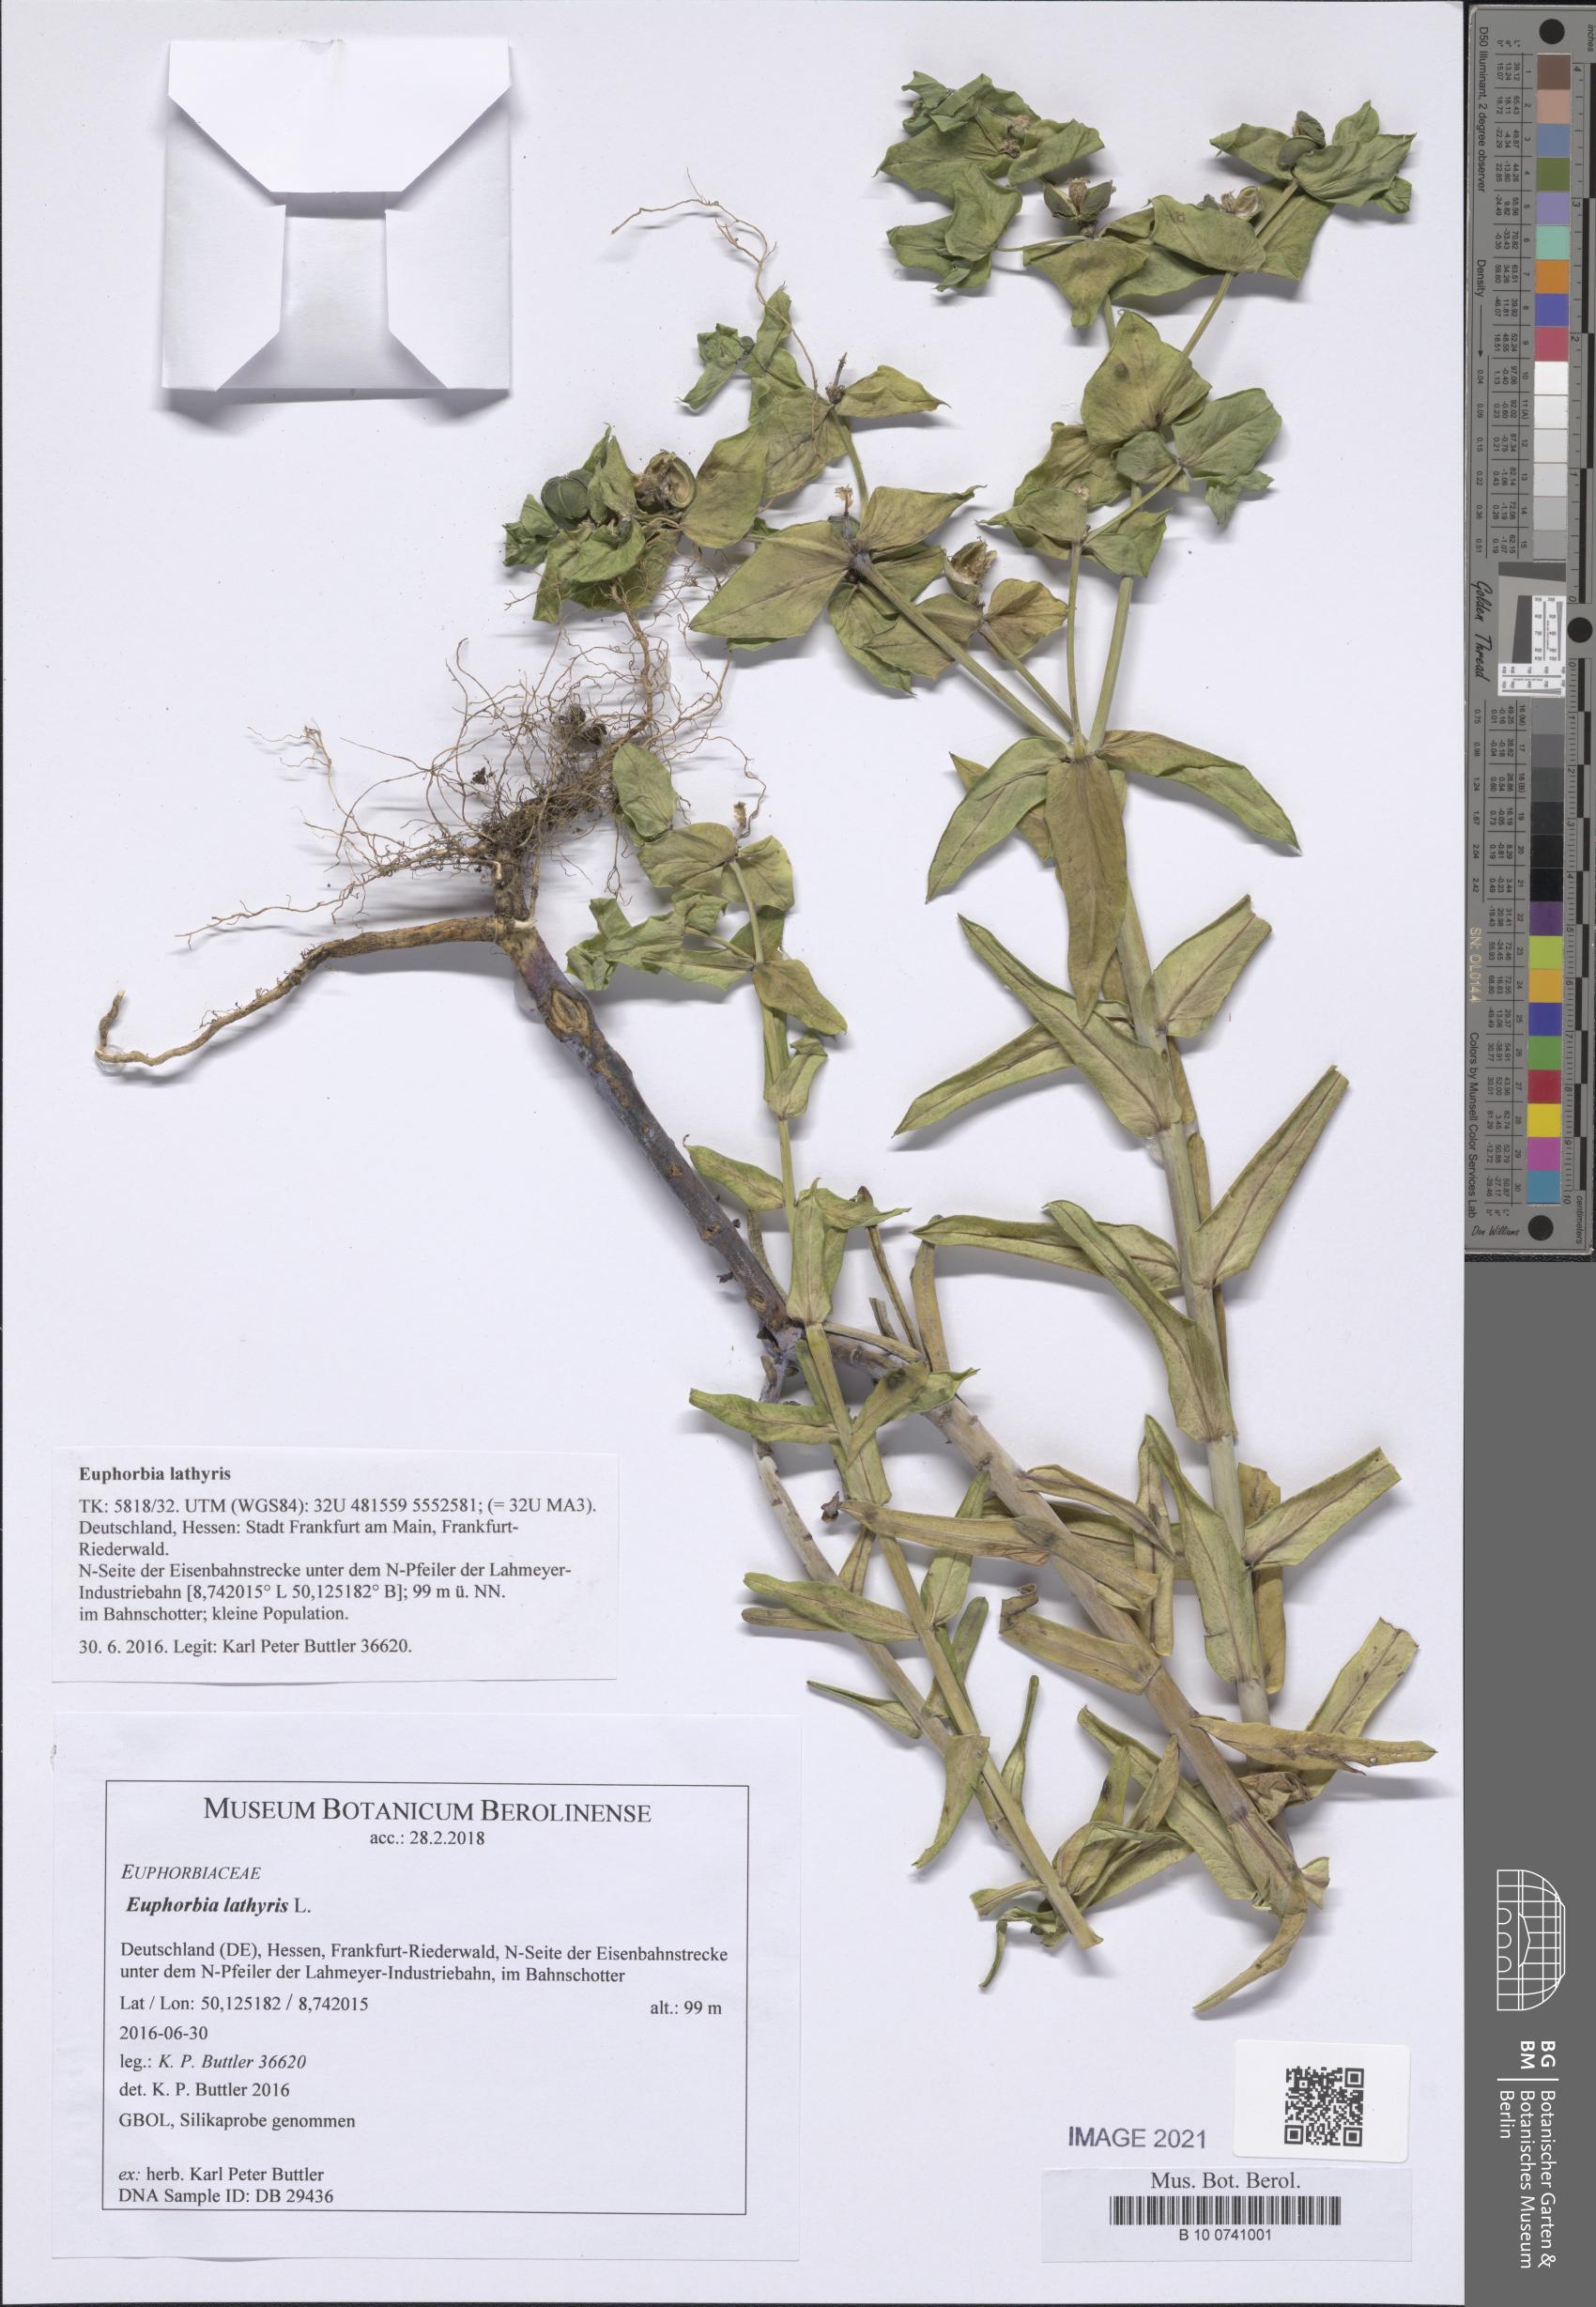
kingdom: Plantae
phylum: Tracheophyta
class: Magnoliopsida
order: Malpighiales
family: Euphorbiaceae
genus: Euphorbia
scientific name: Euphorbia lathyris
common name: Caper spurge
